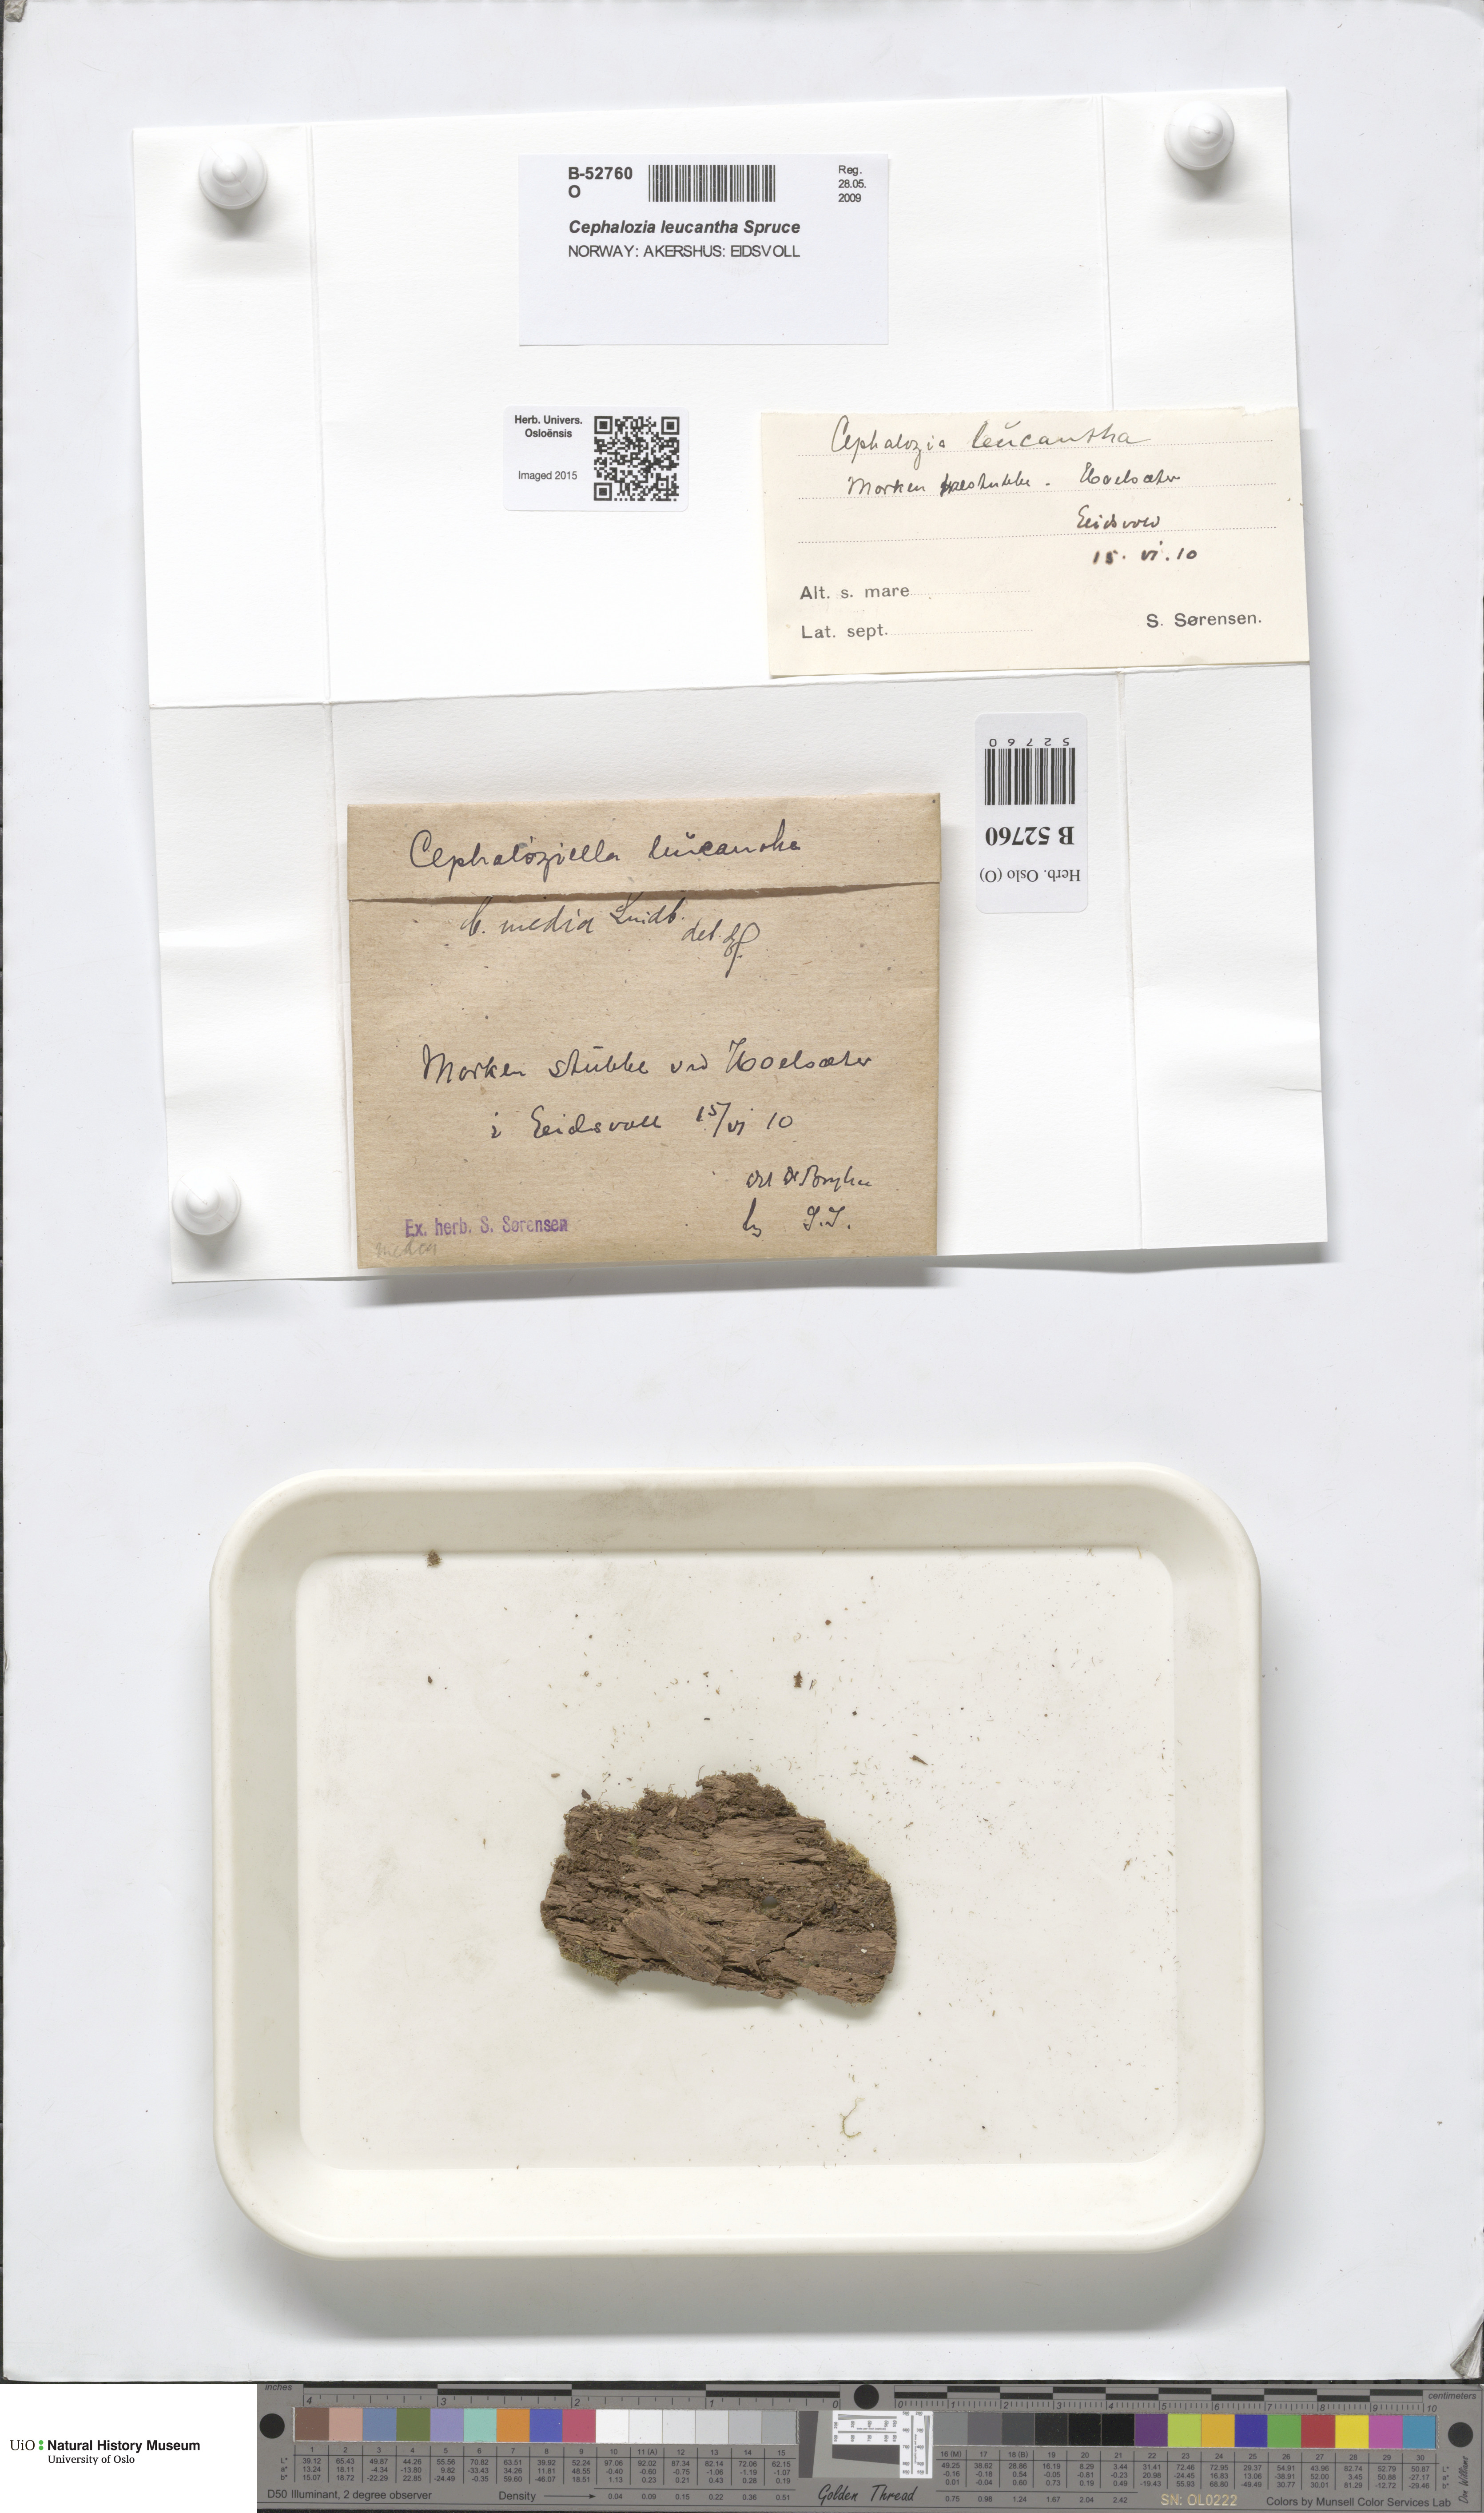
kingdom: Plantae
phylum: Marchantiophyta
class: Jungermanniopsida
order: Jungermanniales
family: Cephaloziaceae
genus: Fuscocephaloziopsis
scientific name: Fuscocephaloziopsis leucantha
